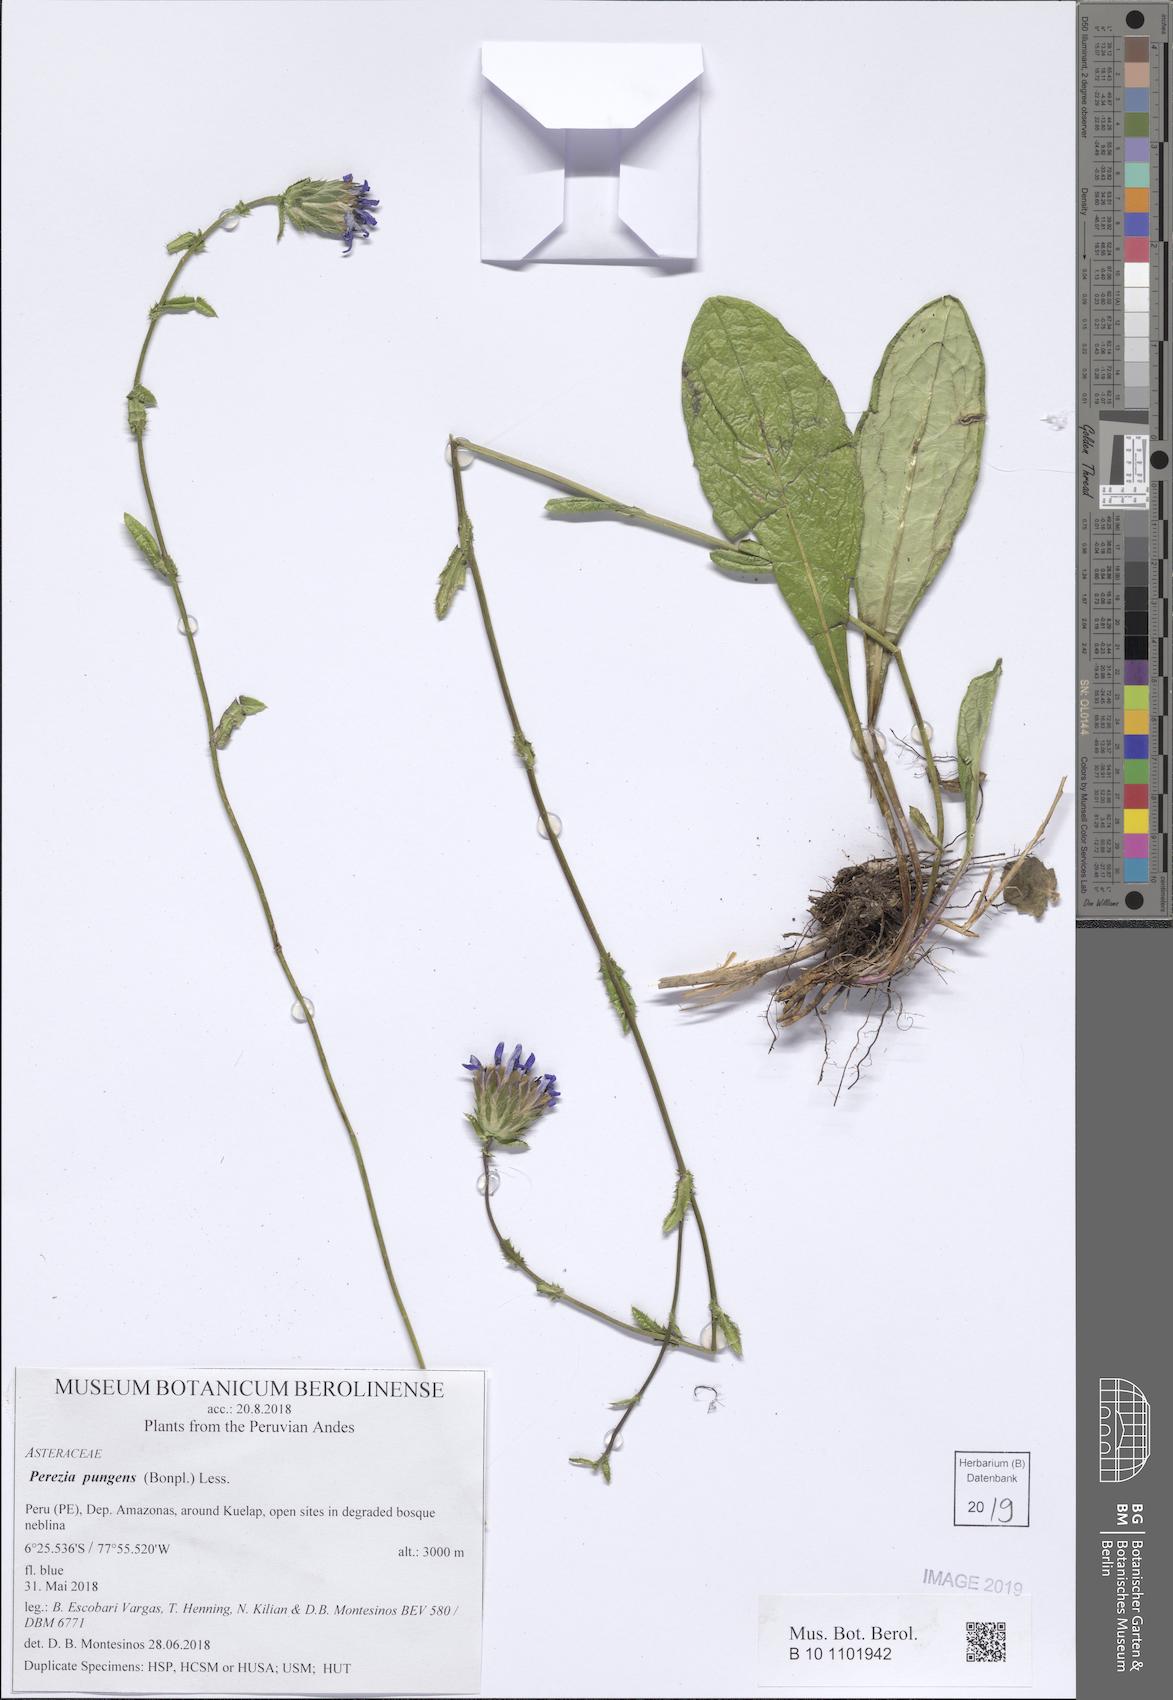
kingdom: Plantae
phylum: Tracheophyta
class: Magnoliopsida
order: Asterales
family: Asteraceae
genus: Perezia
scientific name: Perezia pungens
